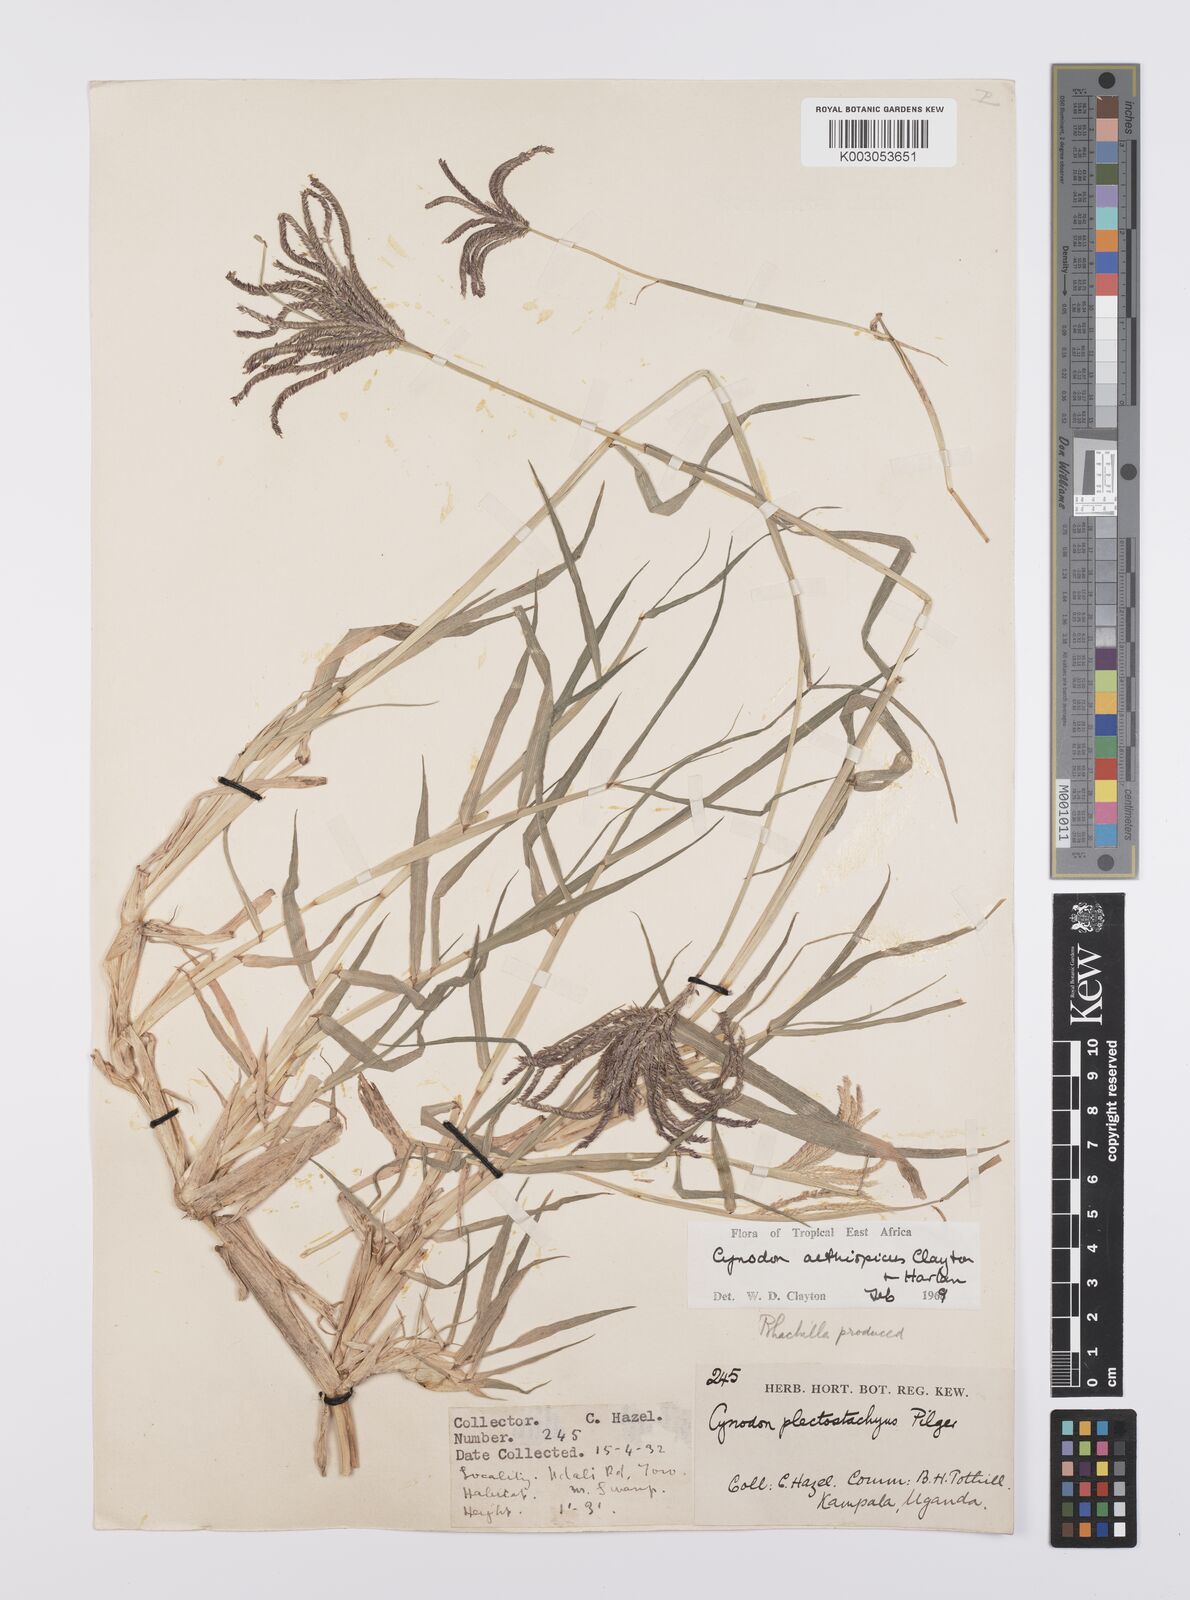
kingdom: Plantae
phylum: Tracheophyta
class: Liliopsida
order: Poales
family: Poaceae
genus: Cynodon
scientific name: Cynodon aethiopicus
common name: Ethiopian dogstooth grass
